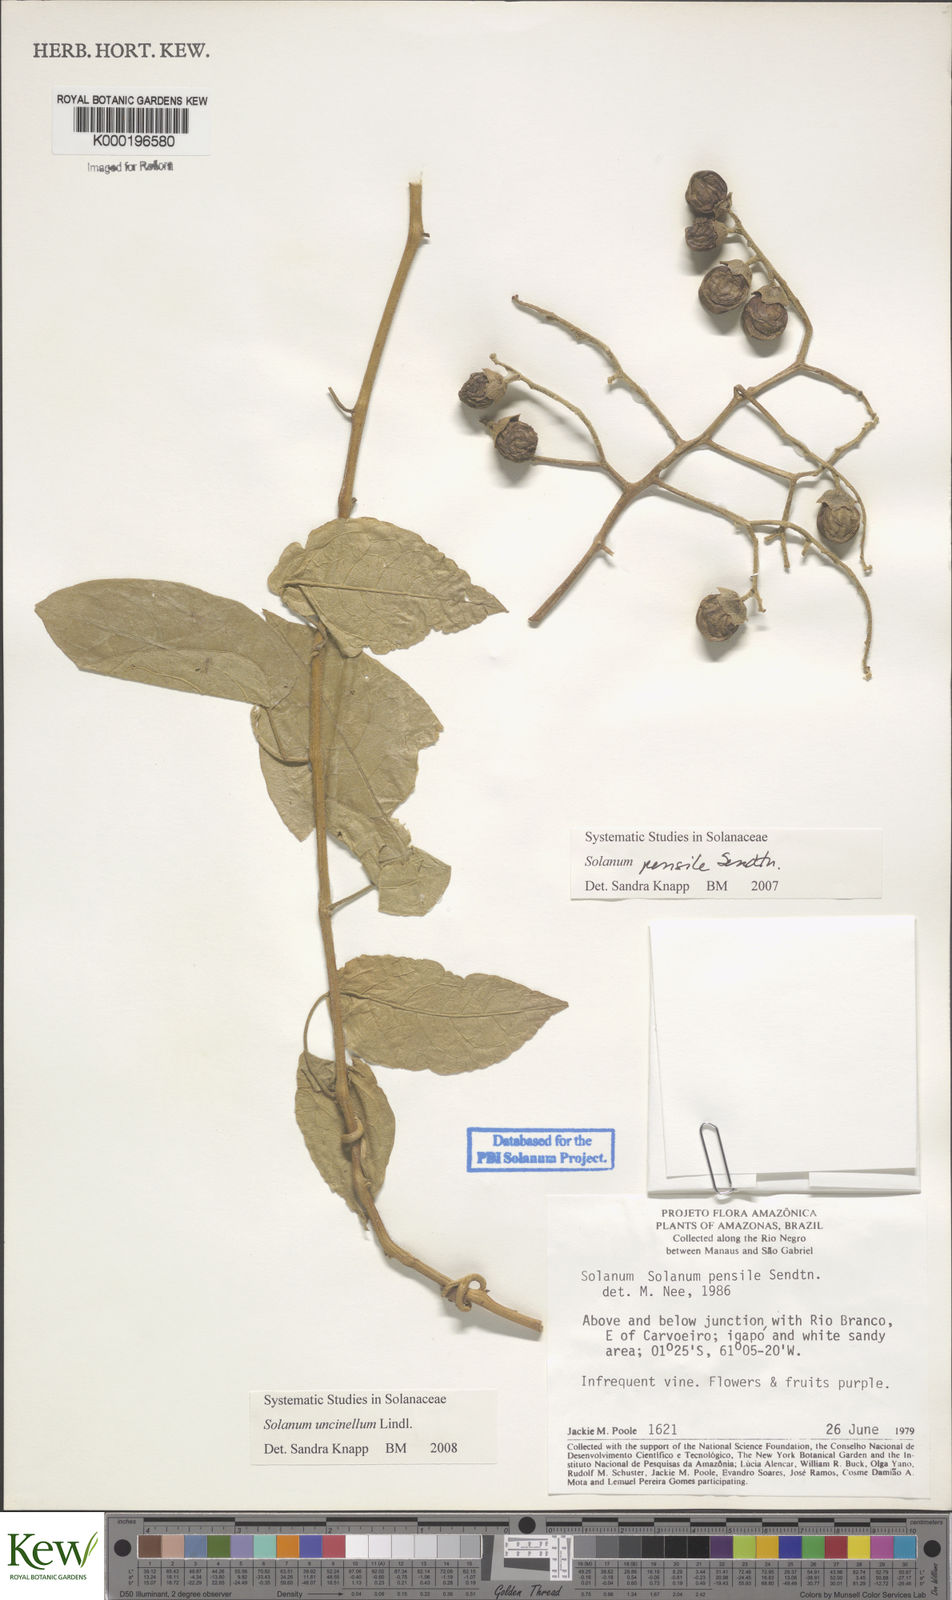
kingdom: Plantae
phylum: Tracheophyta
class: Magnoliopsida
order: Solanales
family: Solanaceae
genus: Solanum
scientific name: Solanum uncinellum
